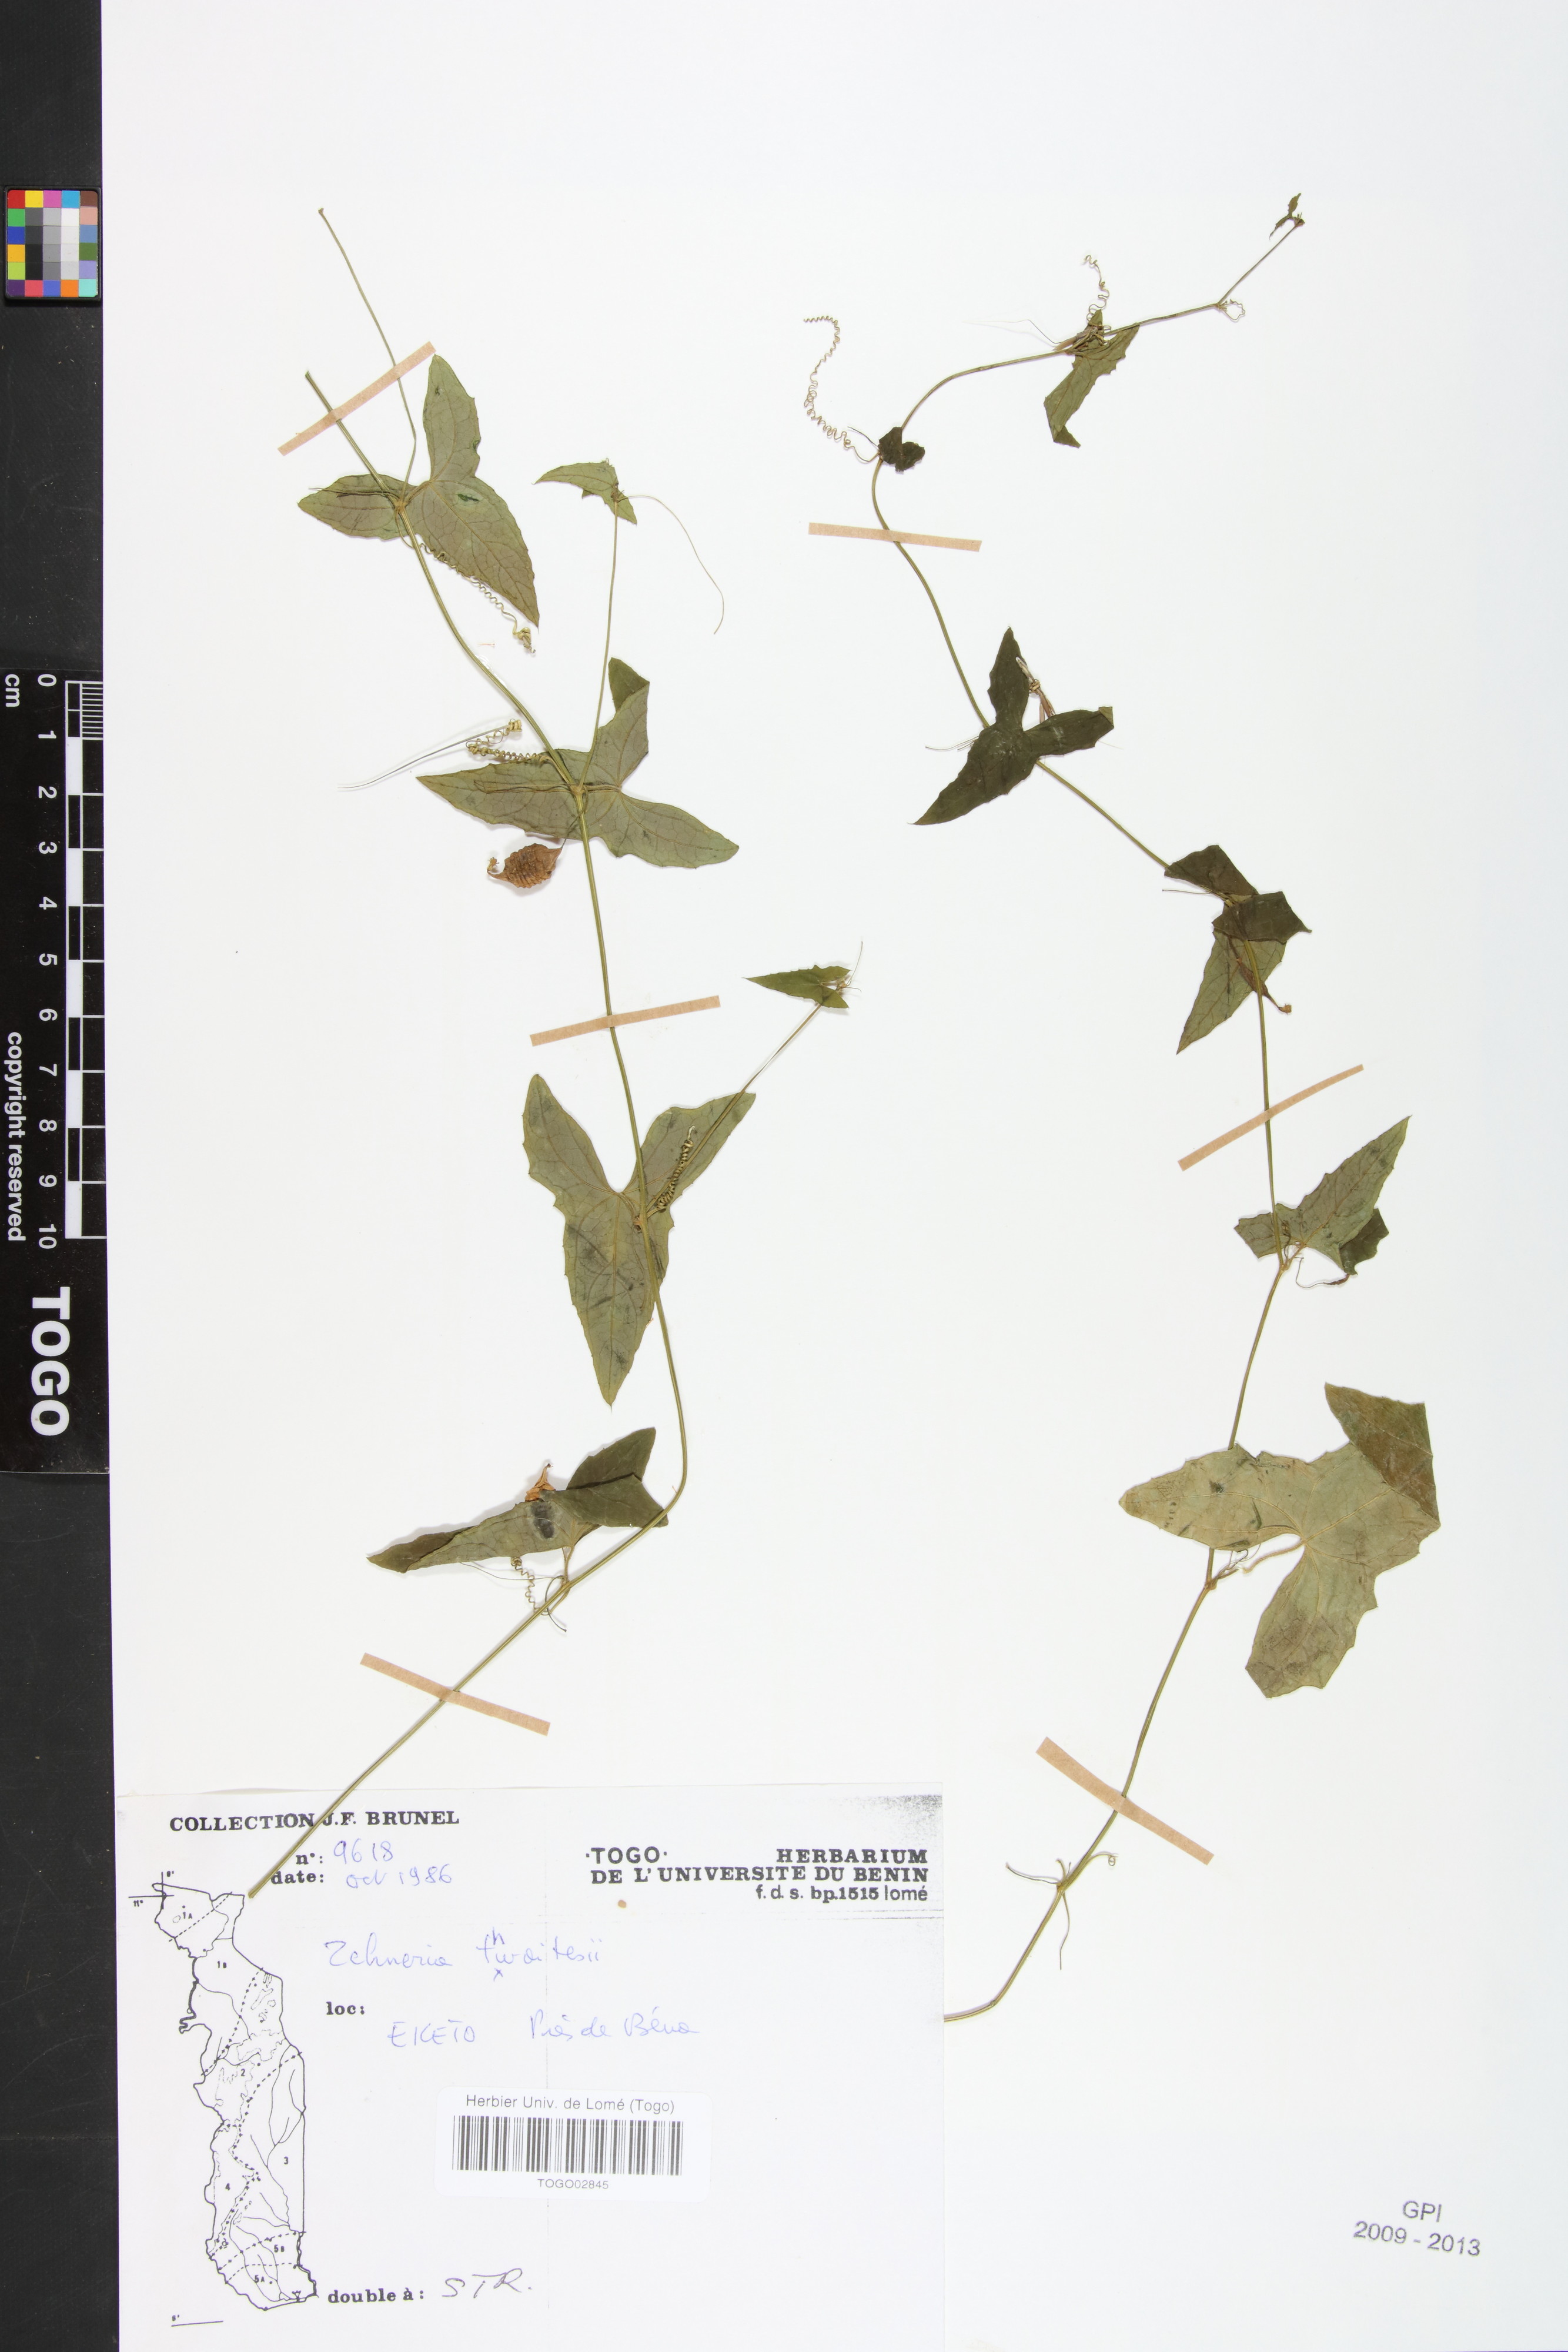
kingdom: Plantae
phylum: Tracheophyta
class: Magnoliopsida
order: Cucurbitales
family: Cucurbitaceae
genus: Zehneria
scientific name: Zehneria thwaitesii
